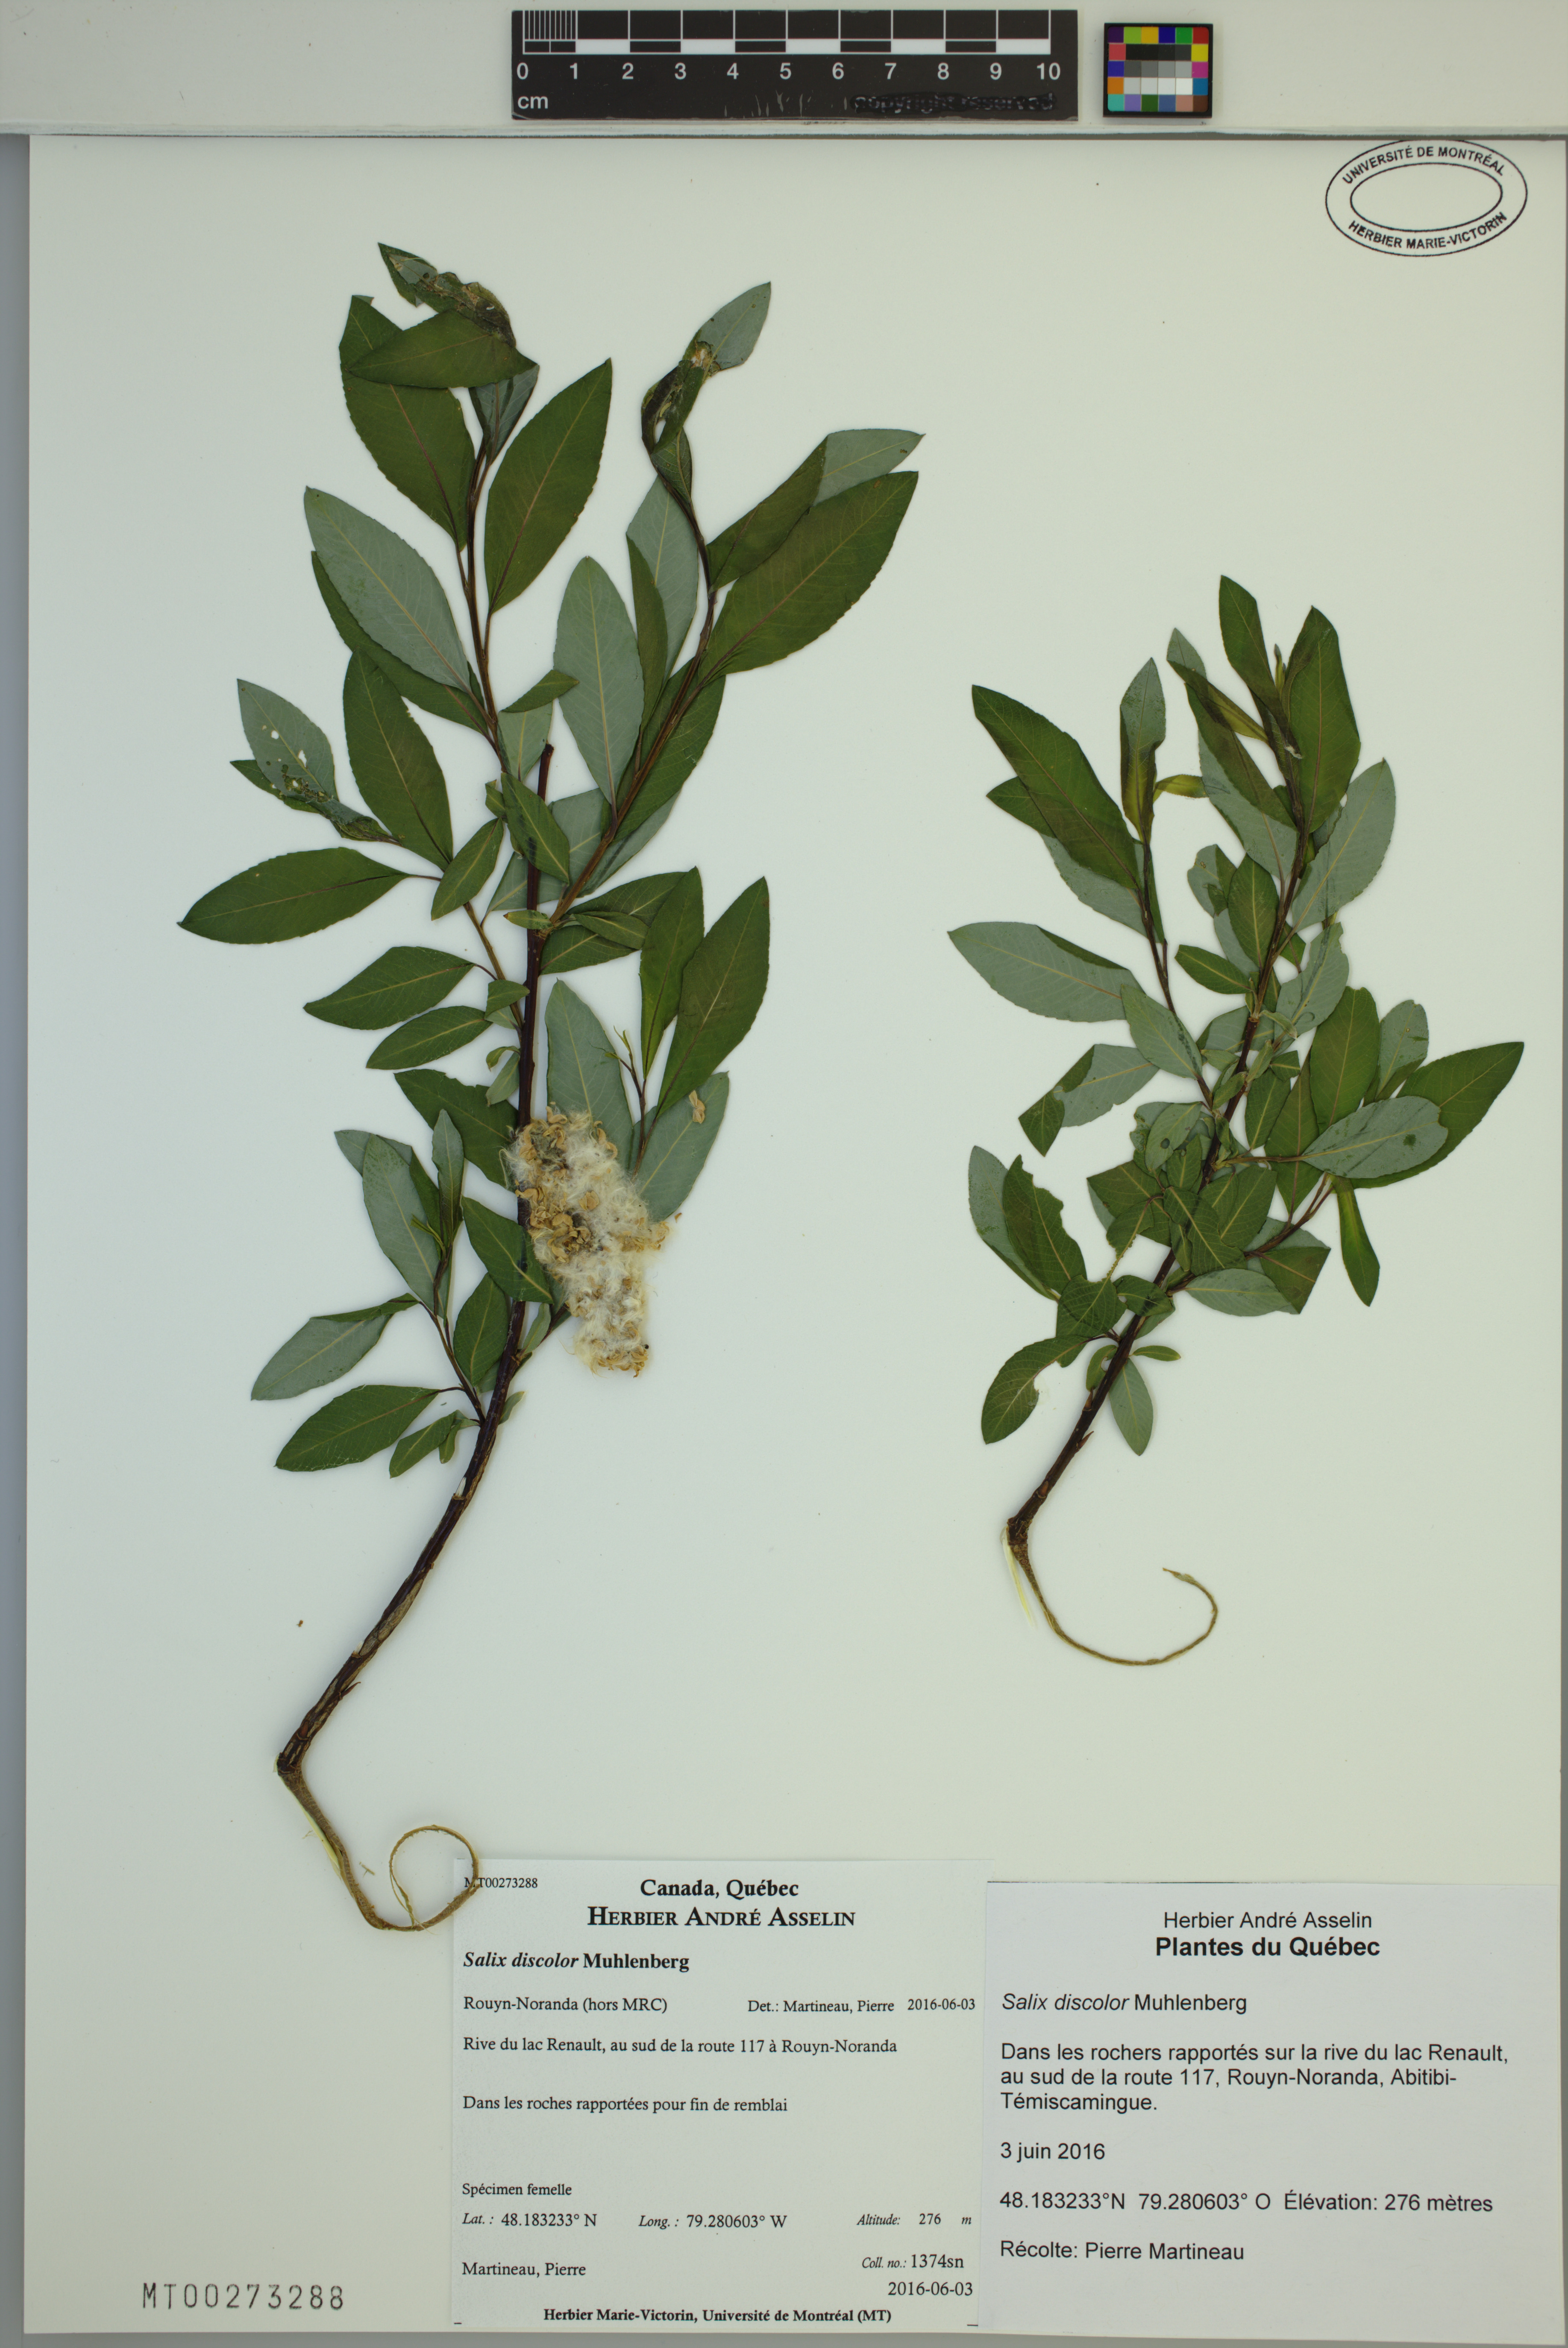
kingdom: Plantae
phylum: Tracheophyta
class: Magnoliopsida
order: Malpighiales
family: Salicaceae
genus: Salix
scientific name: Salix discolor
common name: Glaucous willow
